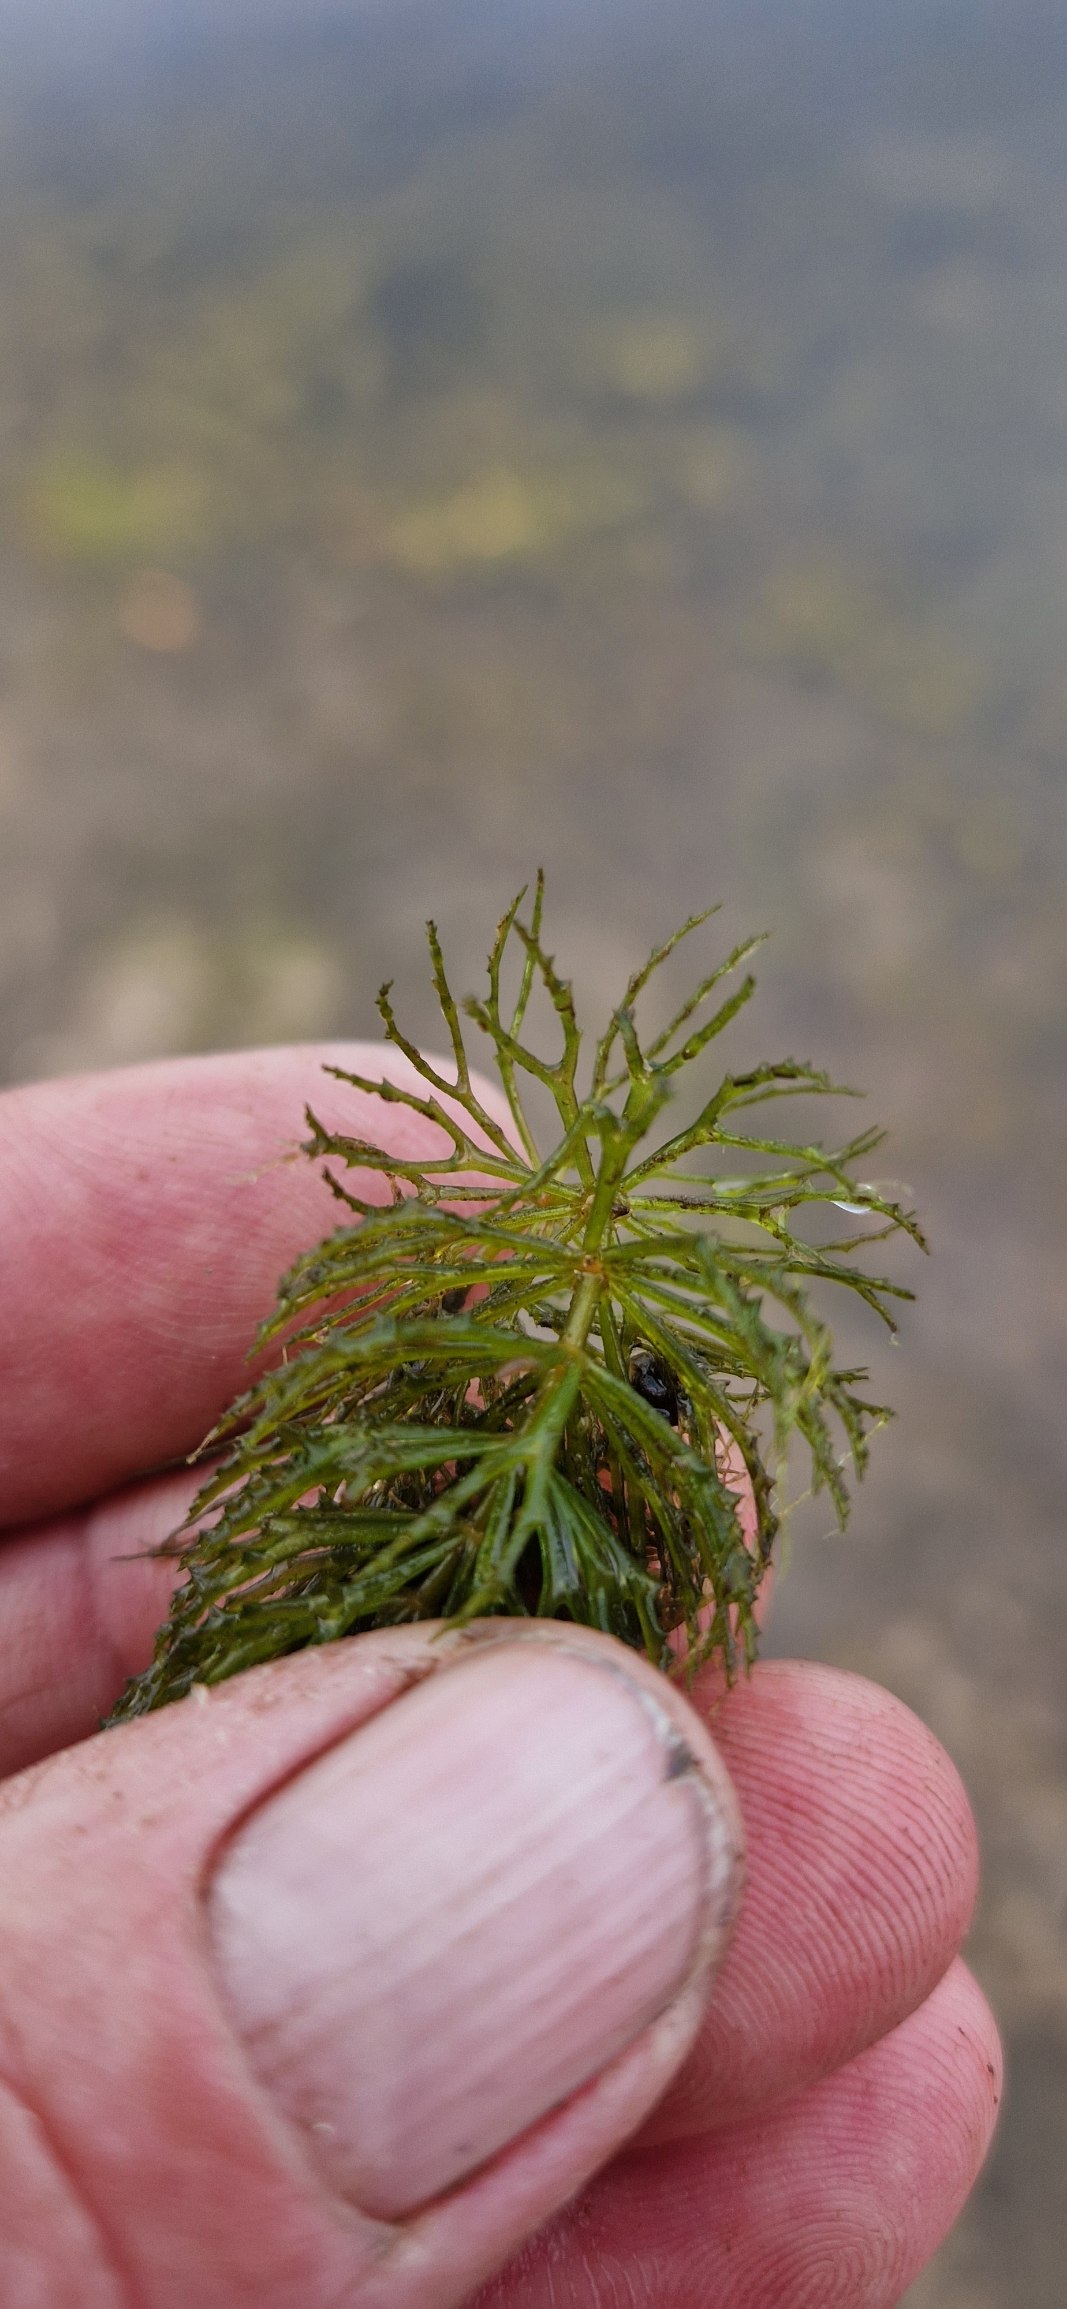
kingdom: Plantae
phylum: Tracheophyta
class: Magnoliopsida
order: Ceratophyllales
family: Ceratophyllaceae
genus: Ceratophyllum
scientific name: Ceratophyllum demersum
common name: Tornfrøet hornblad
